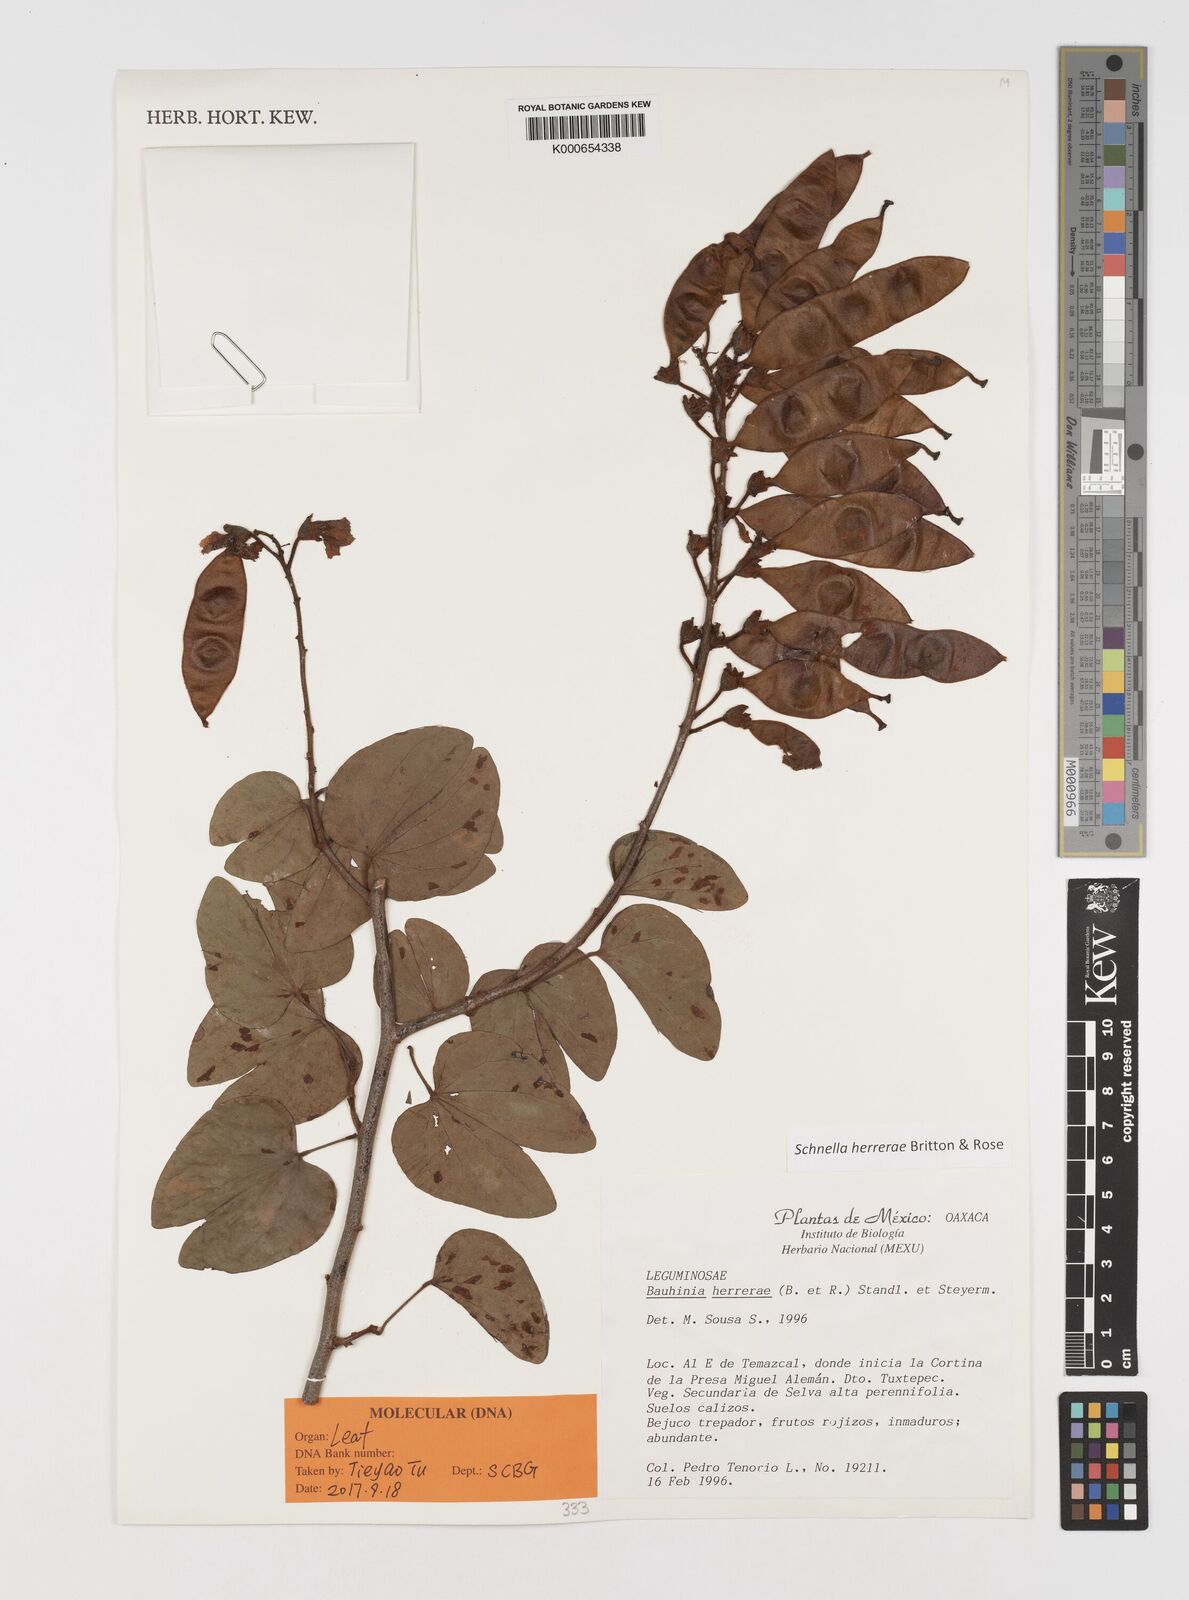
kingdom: Plantae
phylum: Tracheophyta
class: Magnoliopsida
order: Fabales
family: Fabaceae
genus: Schnella
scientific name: Schnella herrerae
